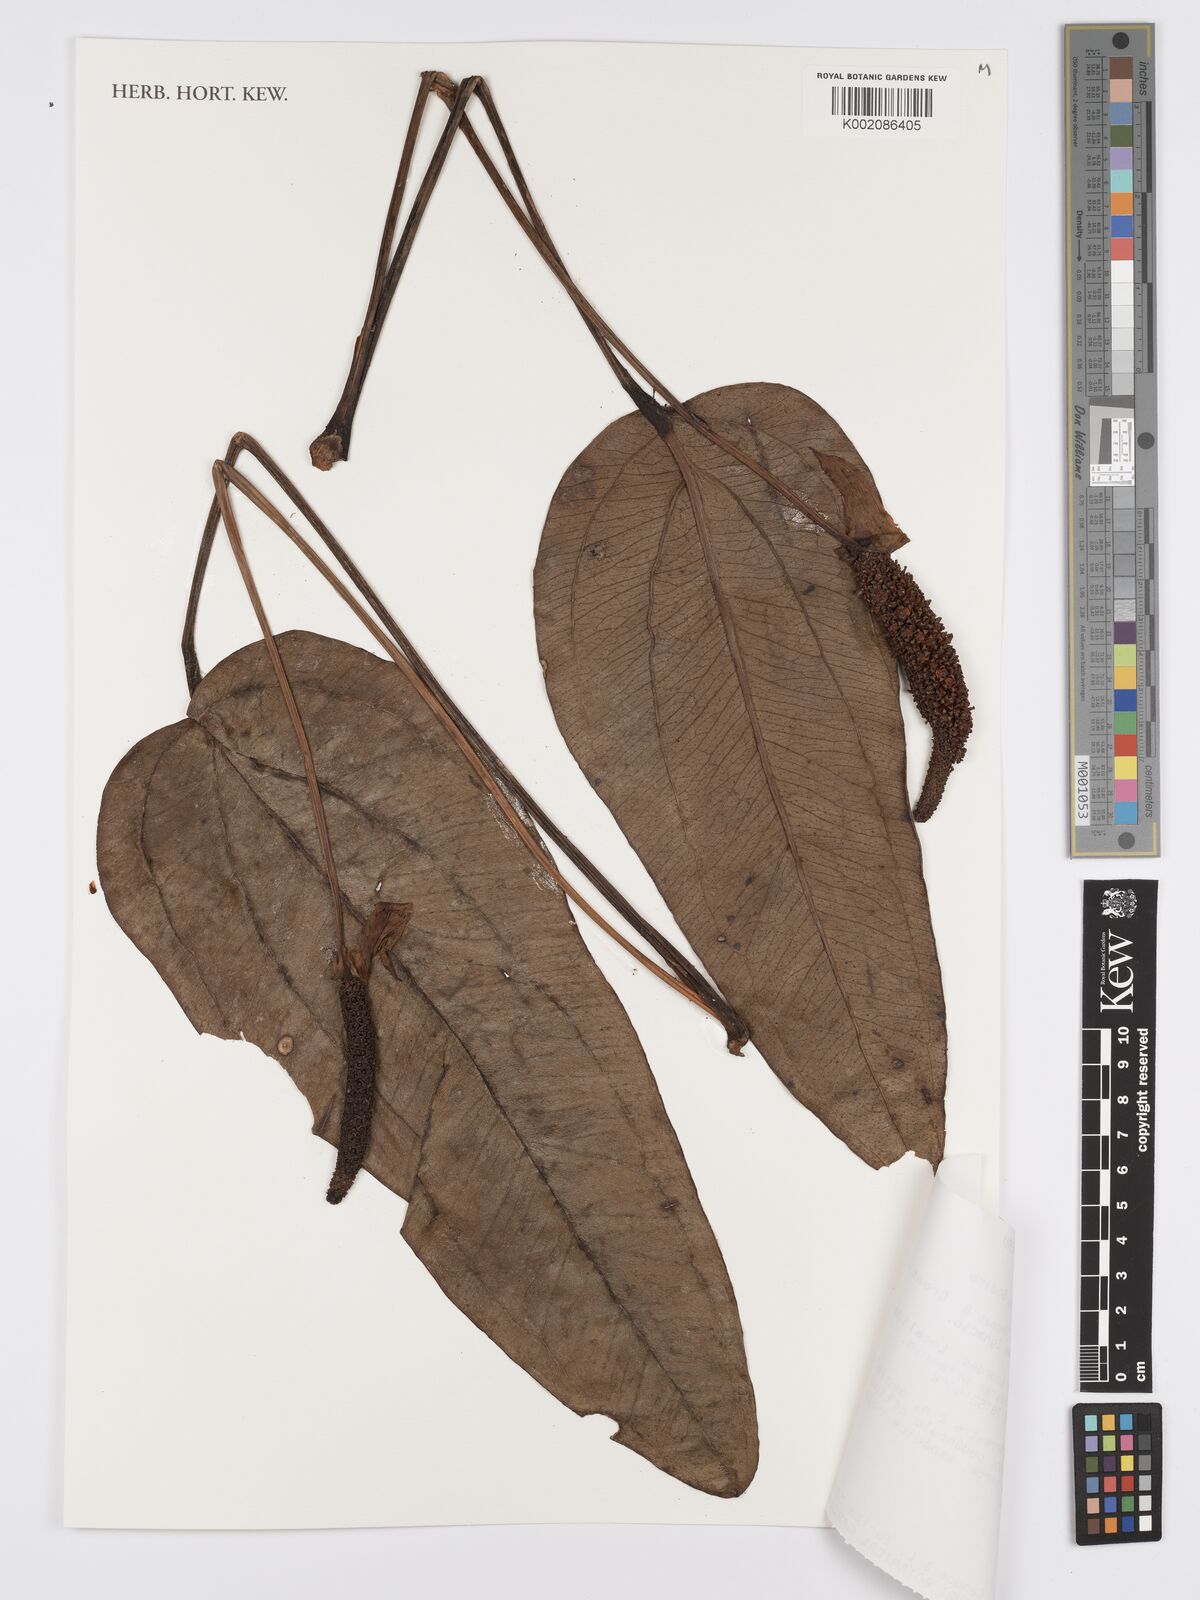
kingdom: Plantae
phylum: Tracheophyta
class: Liliopsida
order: Alismatales
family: Araceae
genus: Anthurium
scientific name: Anthurium lingua
